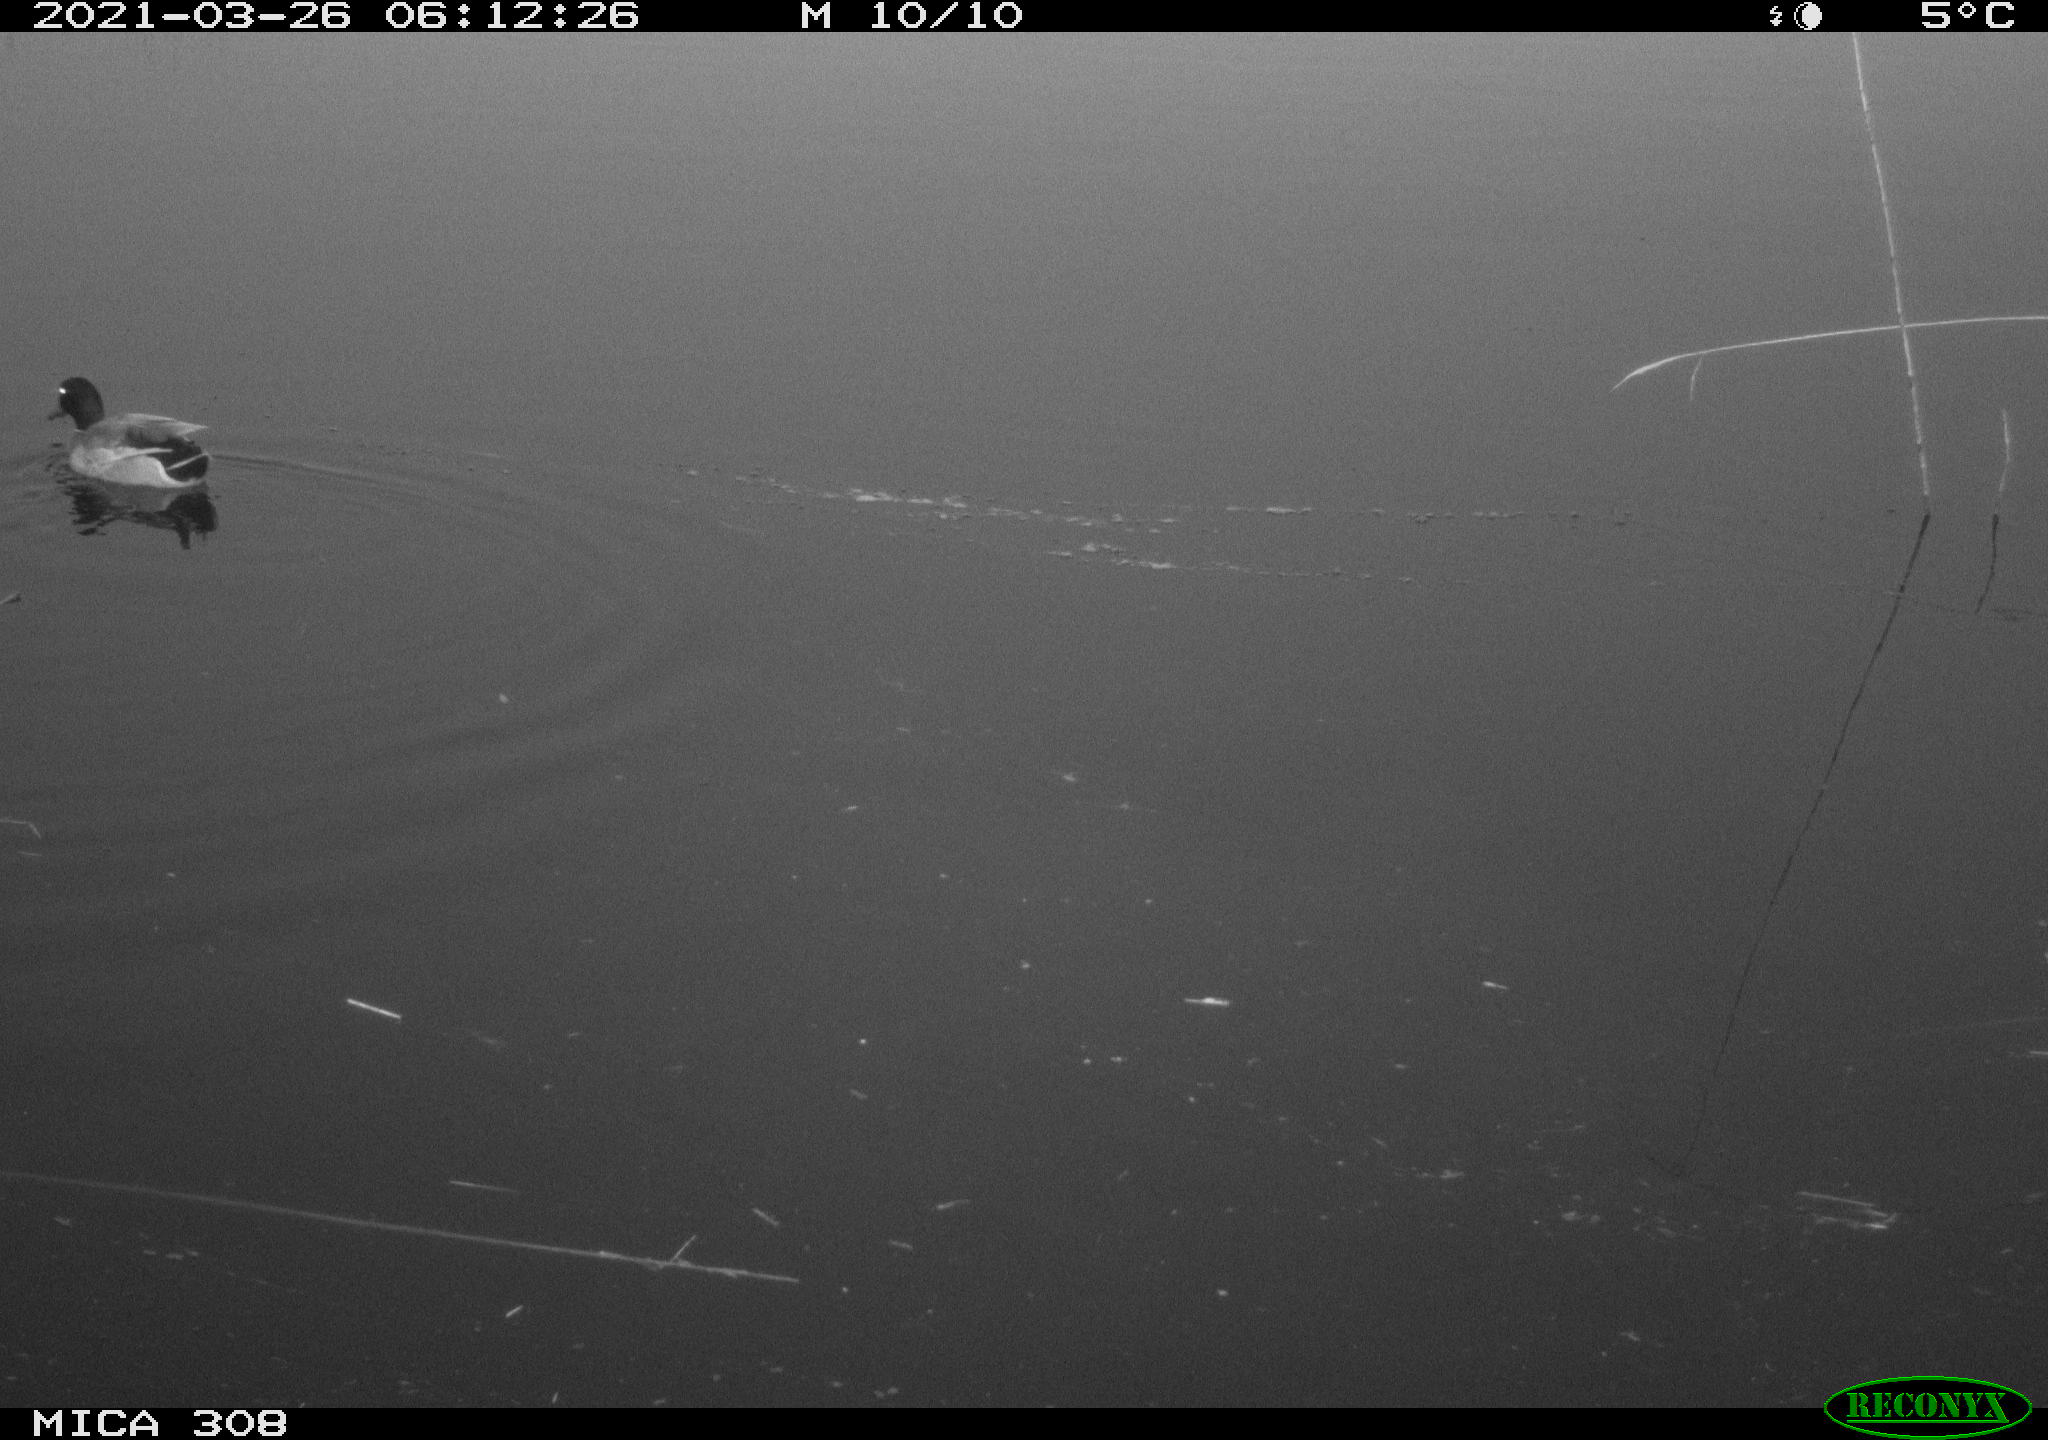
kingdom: Animalia
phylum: Chordata
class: Aves
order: Anseriformes
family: Anatidae
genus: Anas
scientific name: Anas platyrhynchos
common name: Mallard
